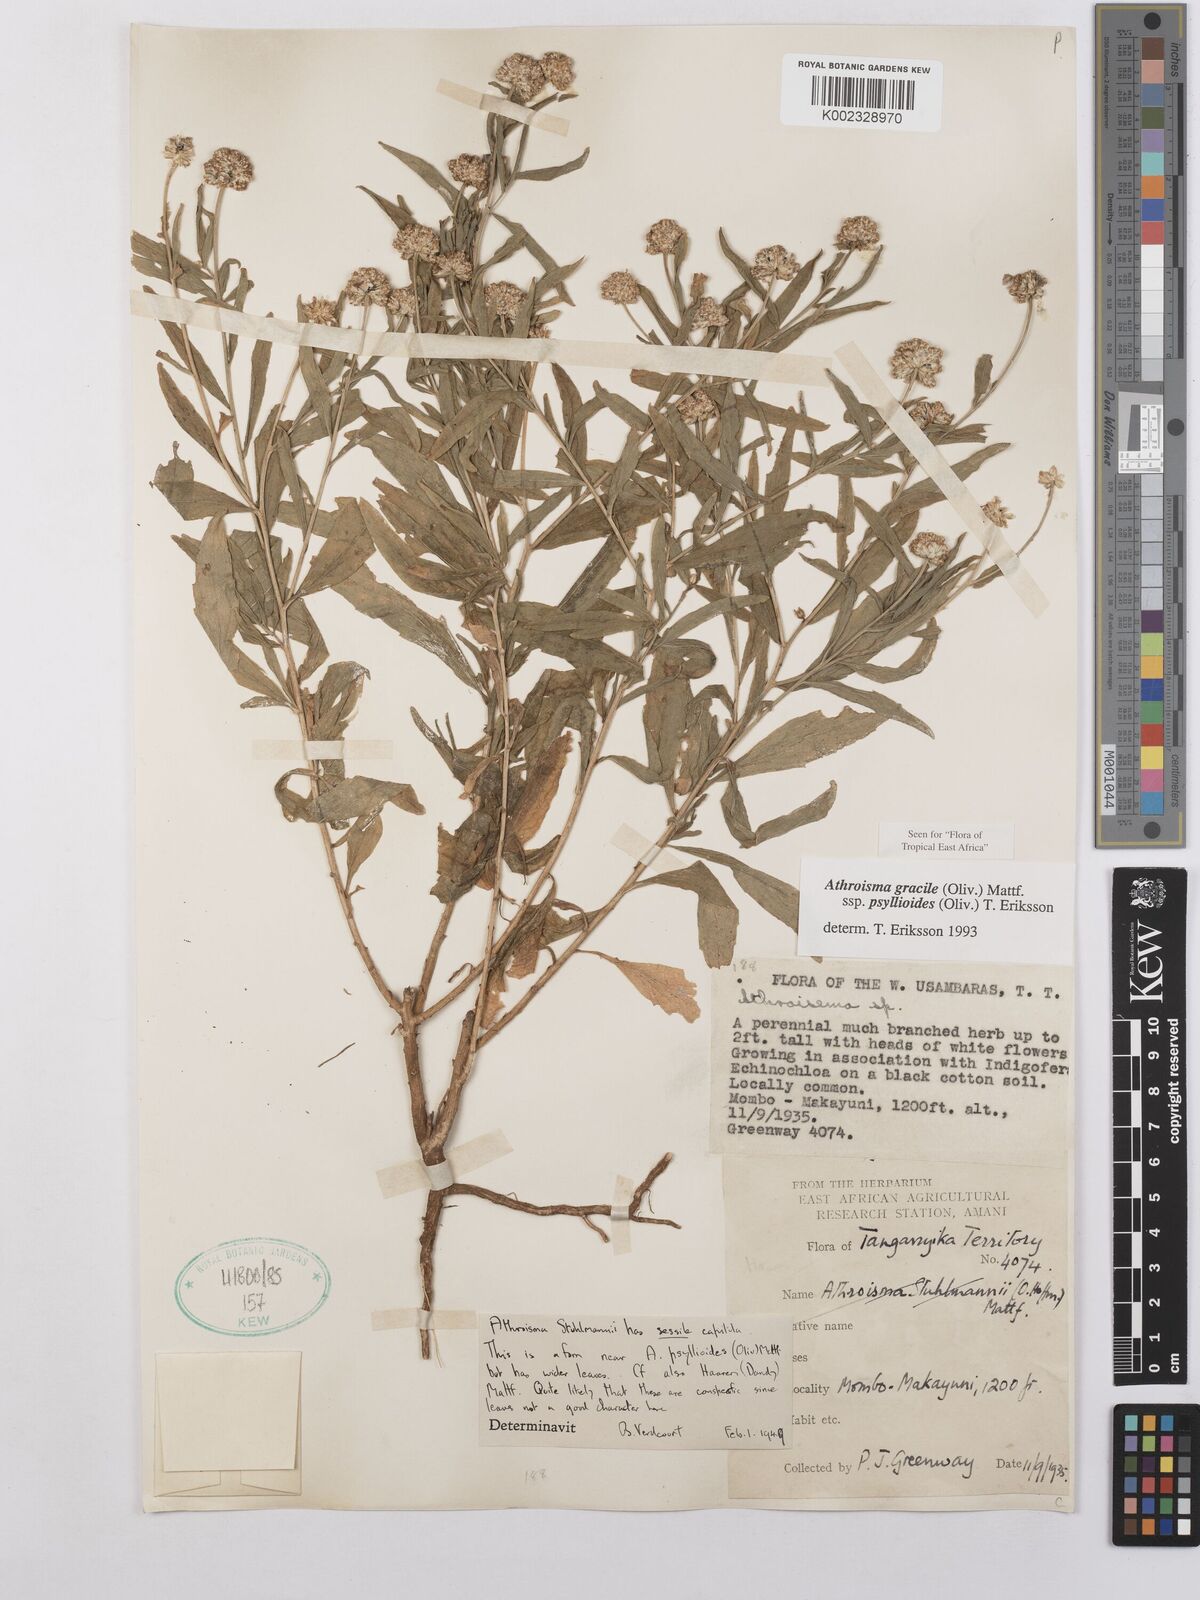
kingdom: Plantae
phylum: Tracheophyta
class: Magnoliopsida
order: Asterales
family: Asteraceae
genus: Athroisma
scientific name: Athroisma gracile
